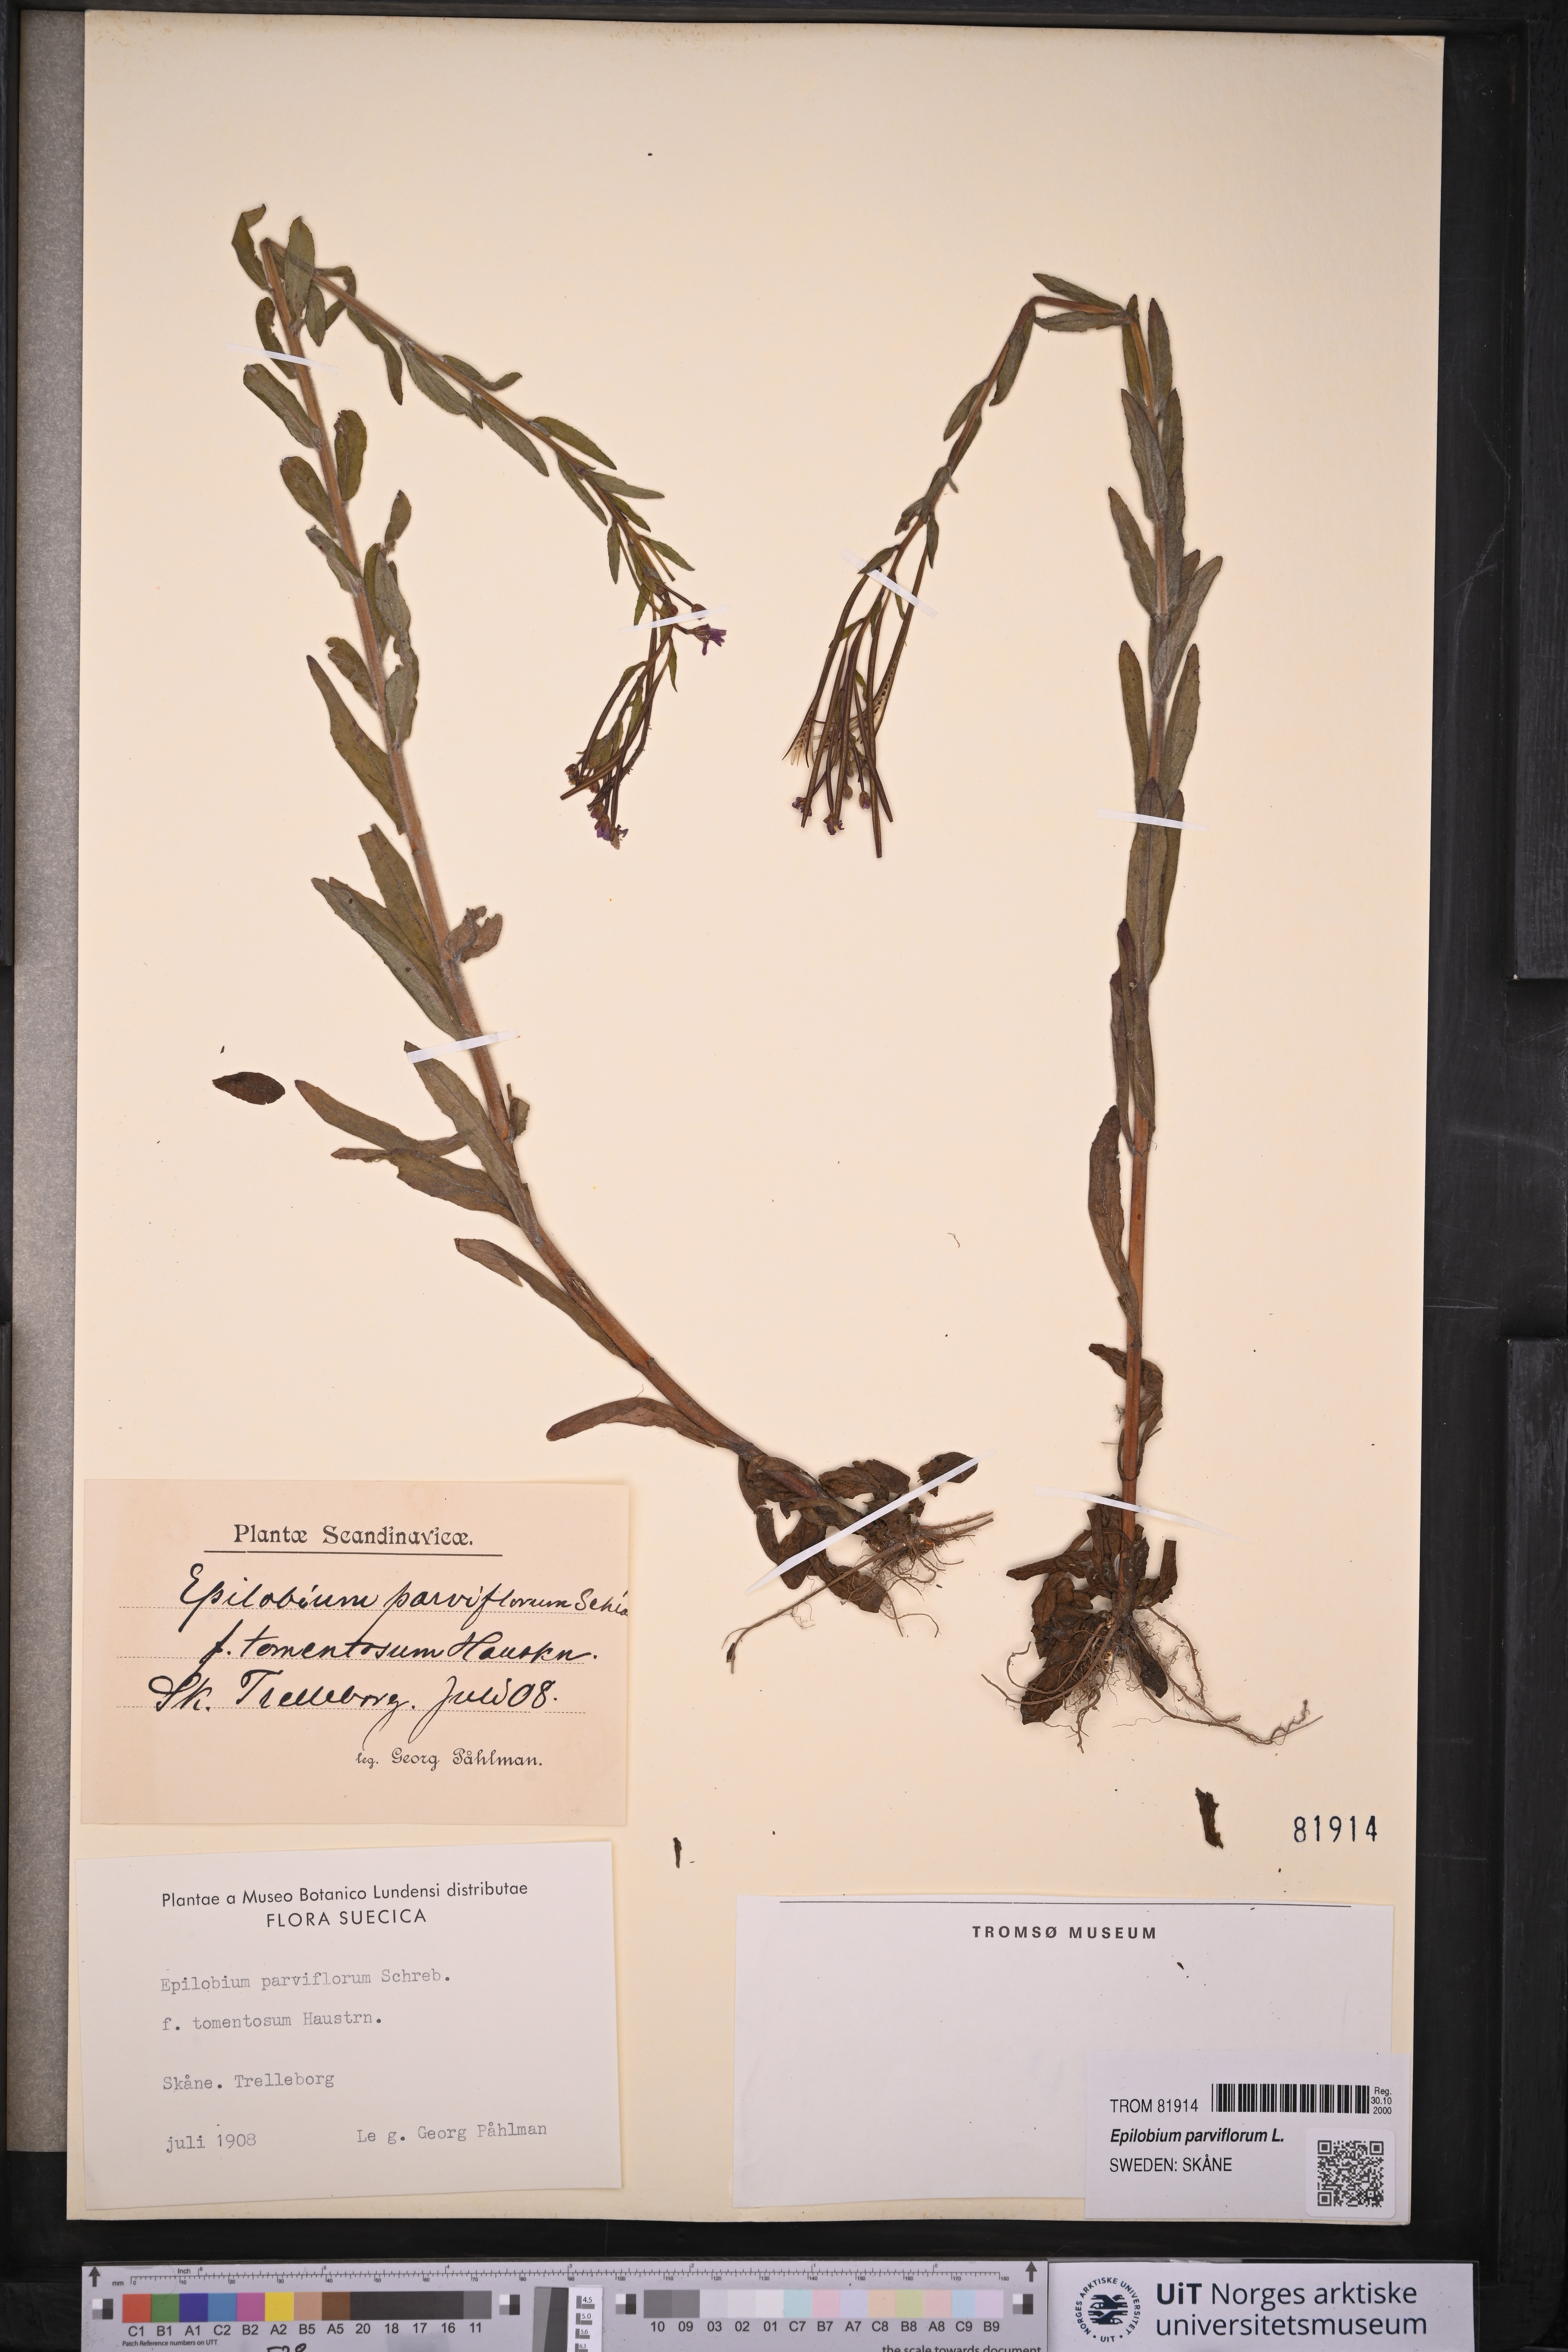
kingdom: Plantae
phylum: Tracheophyta
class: Magnoliopsida
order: Myrtales
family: Onagraceae
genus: Epilobium
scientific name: Epilobium parviflorum
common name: Hoary willowherb
